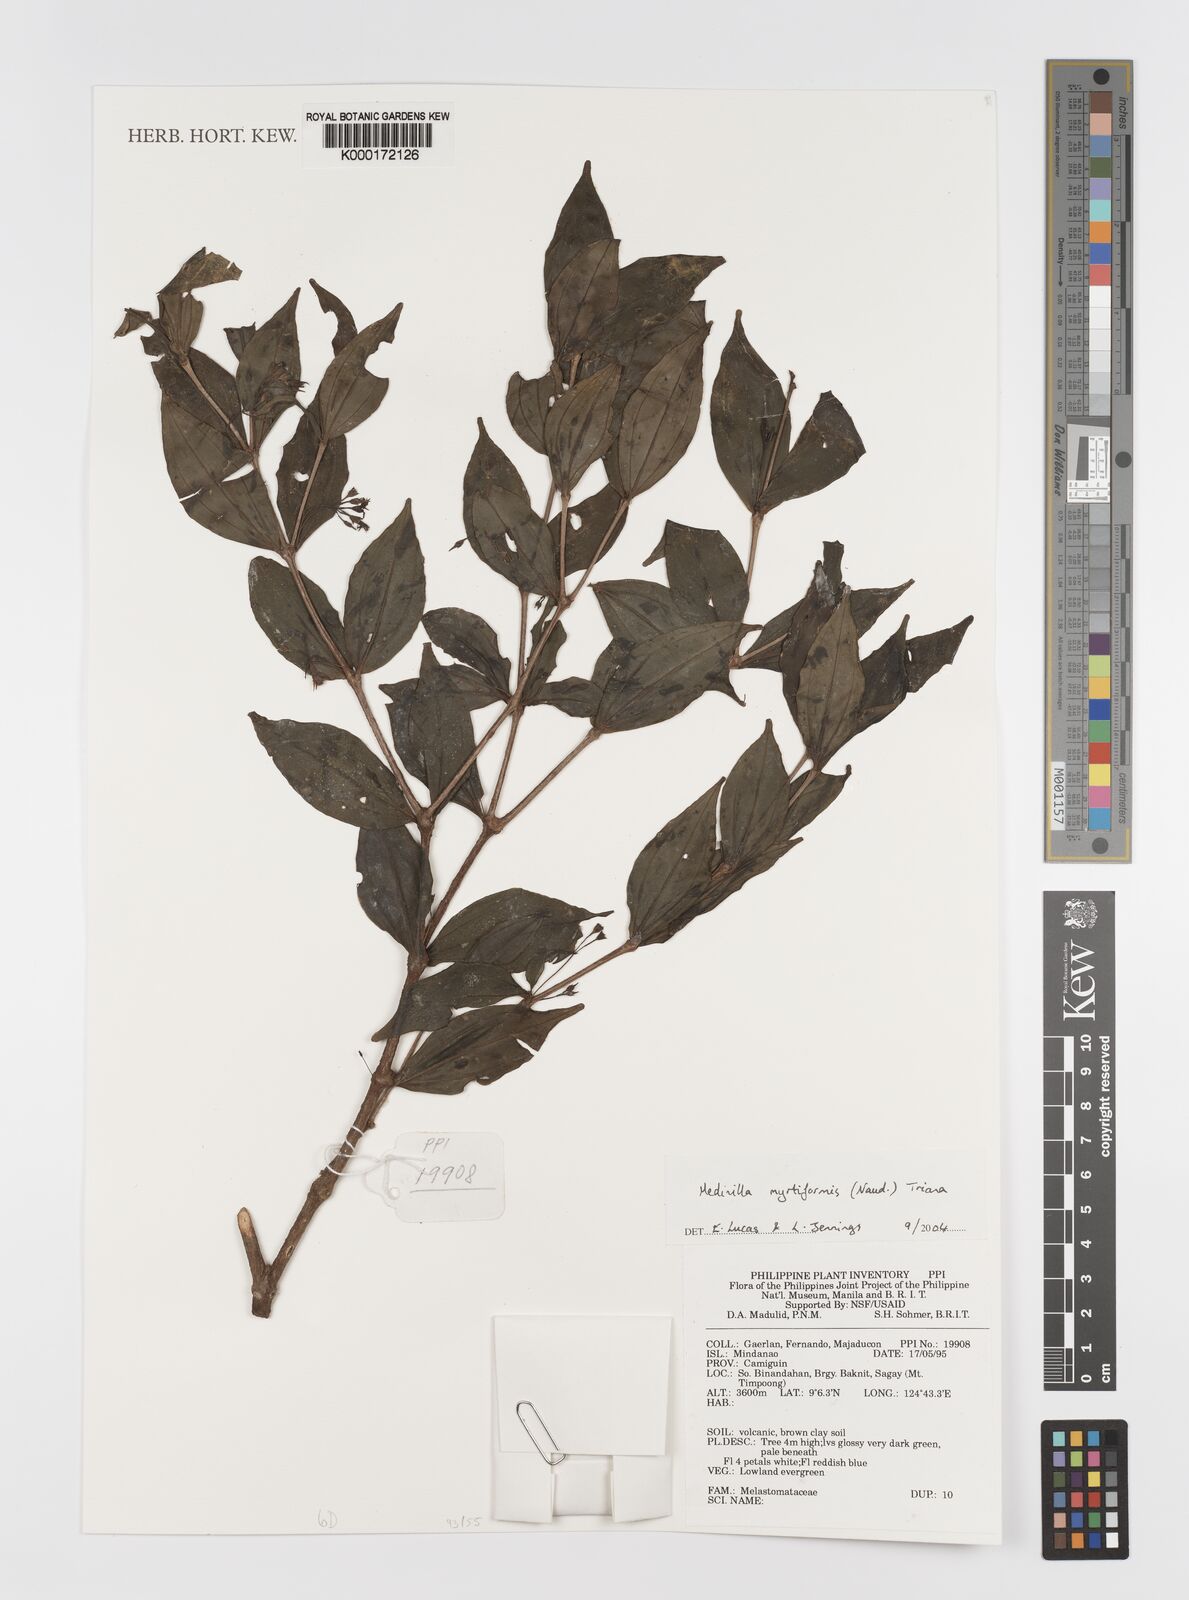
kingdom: Plantae
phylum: Tracheophyta
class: Magnoliopsida
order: Myrtales
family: Melastomataceae
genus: Medinilla
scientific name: Medinilla myrtiformis
